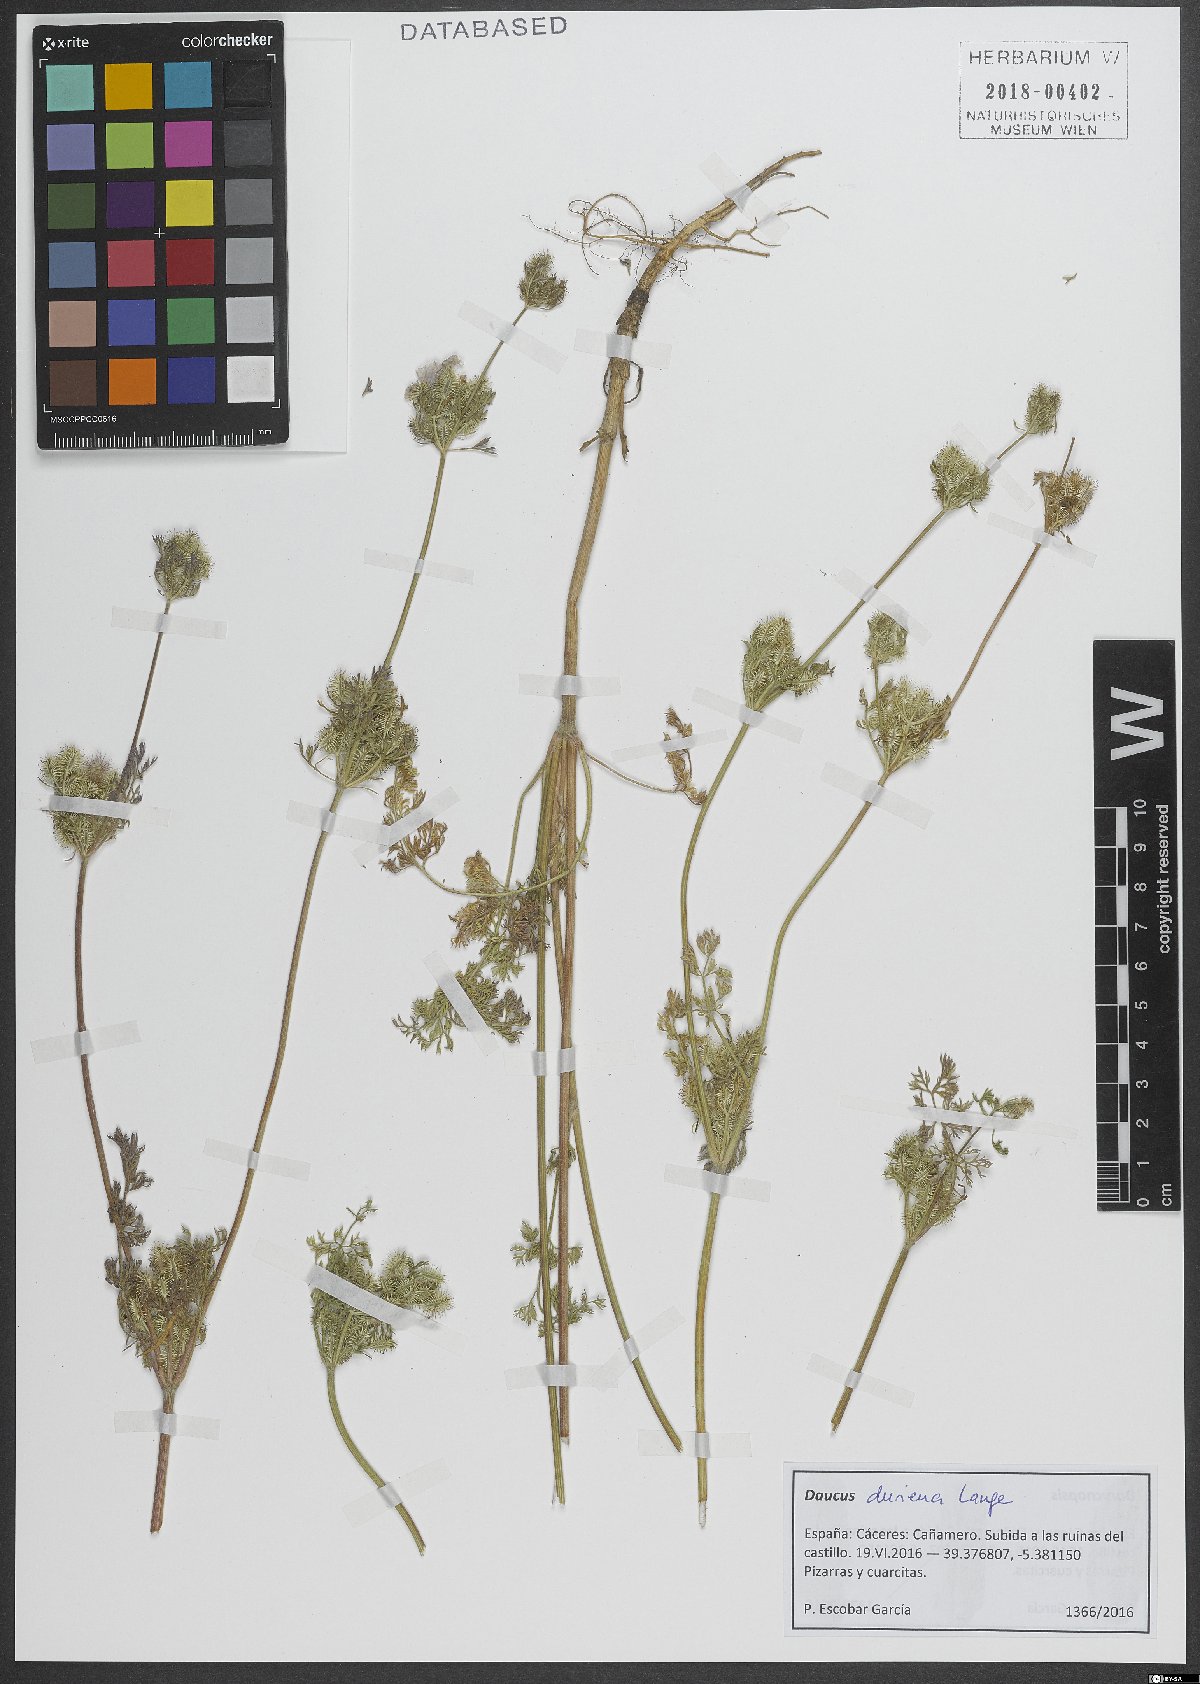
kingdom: Plantae
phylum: Tracheophyta
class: Magnoliopsida
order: Apiales
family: Apiaceae
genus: Daucus
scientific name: Daucus durieua
